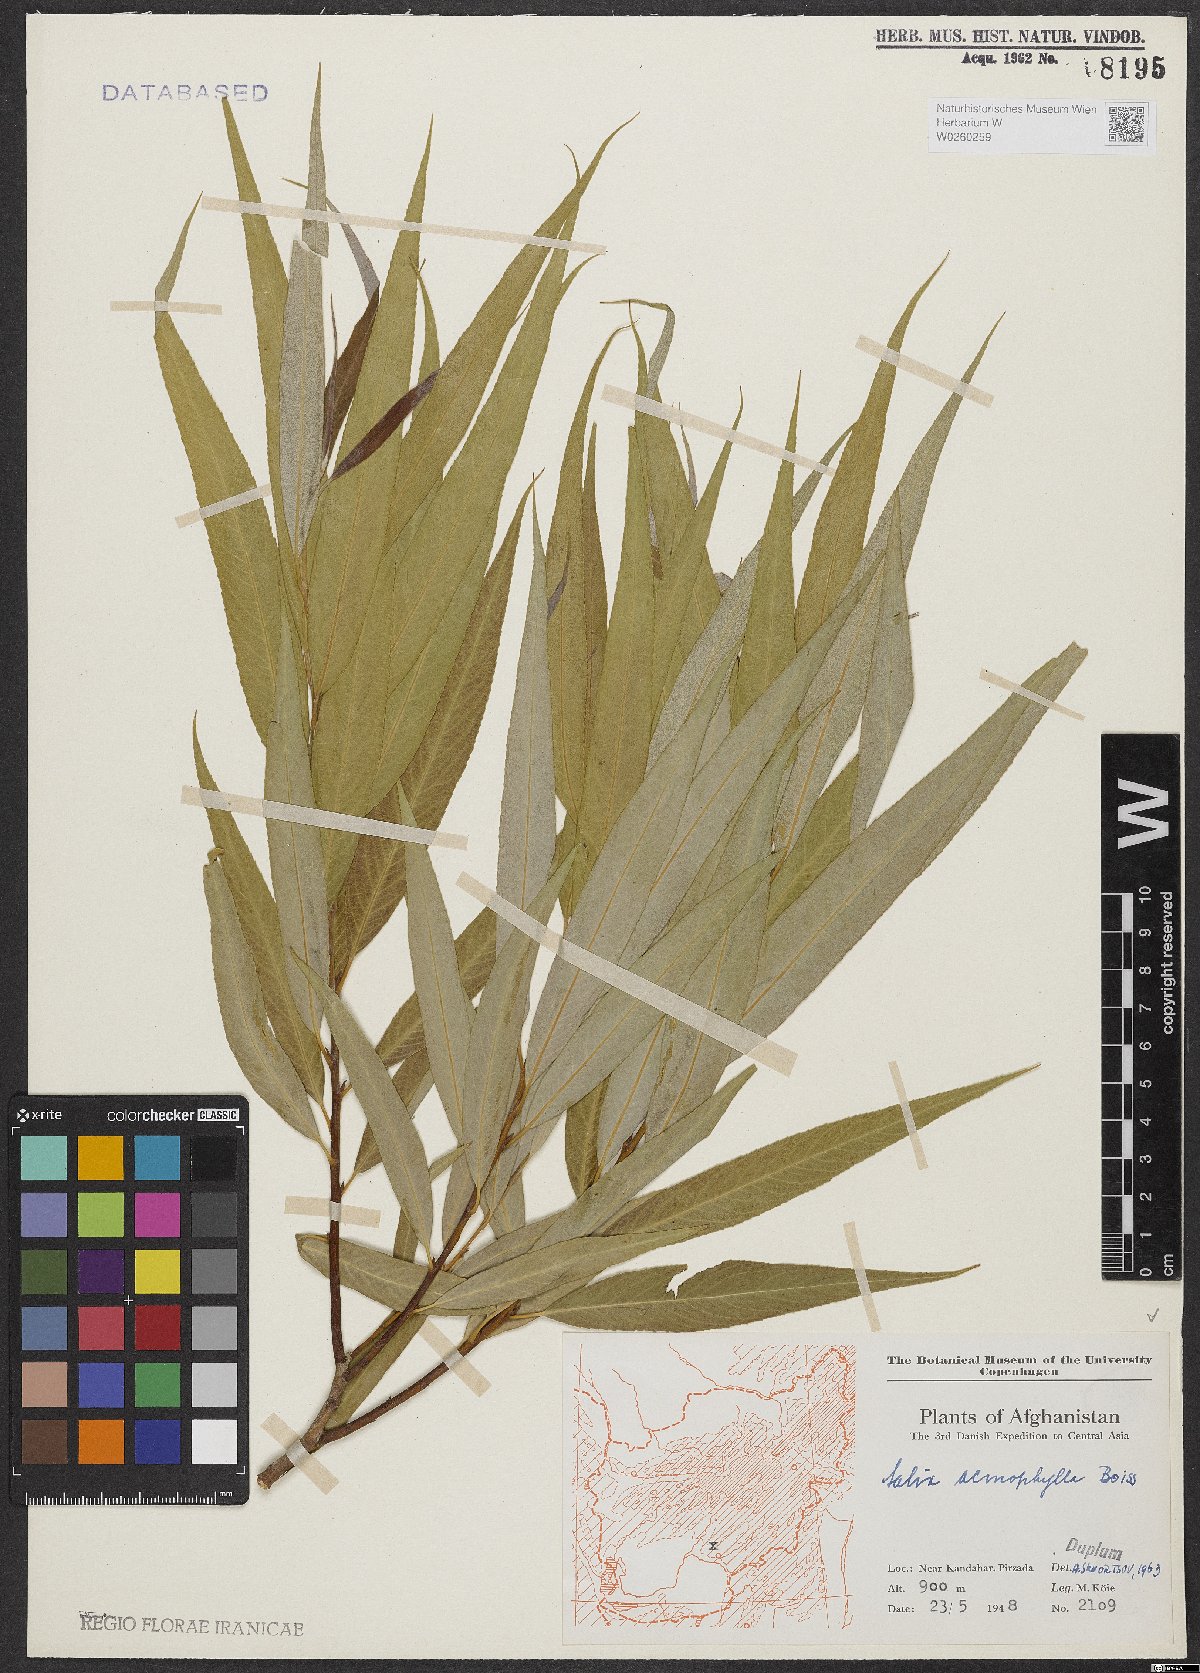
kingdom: Plantae
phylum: Tracheophyta
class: Magnoliopsida
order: Malpighiales
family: Salicaceae
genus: Salix
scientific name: Salix acmophylla
